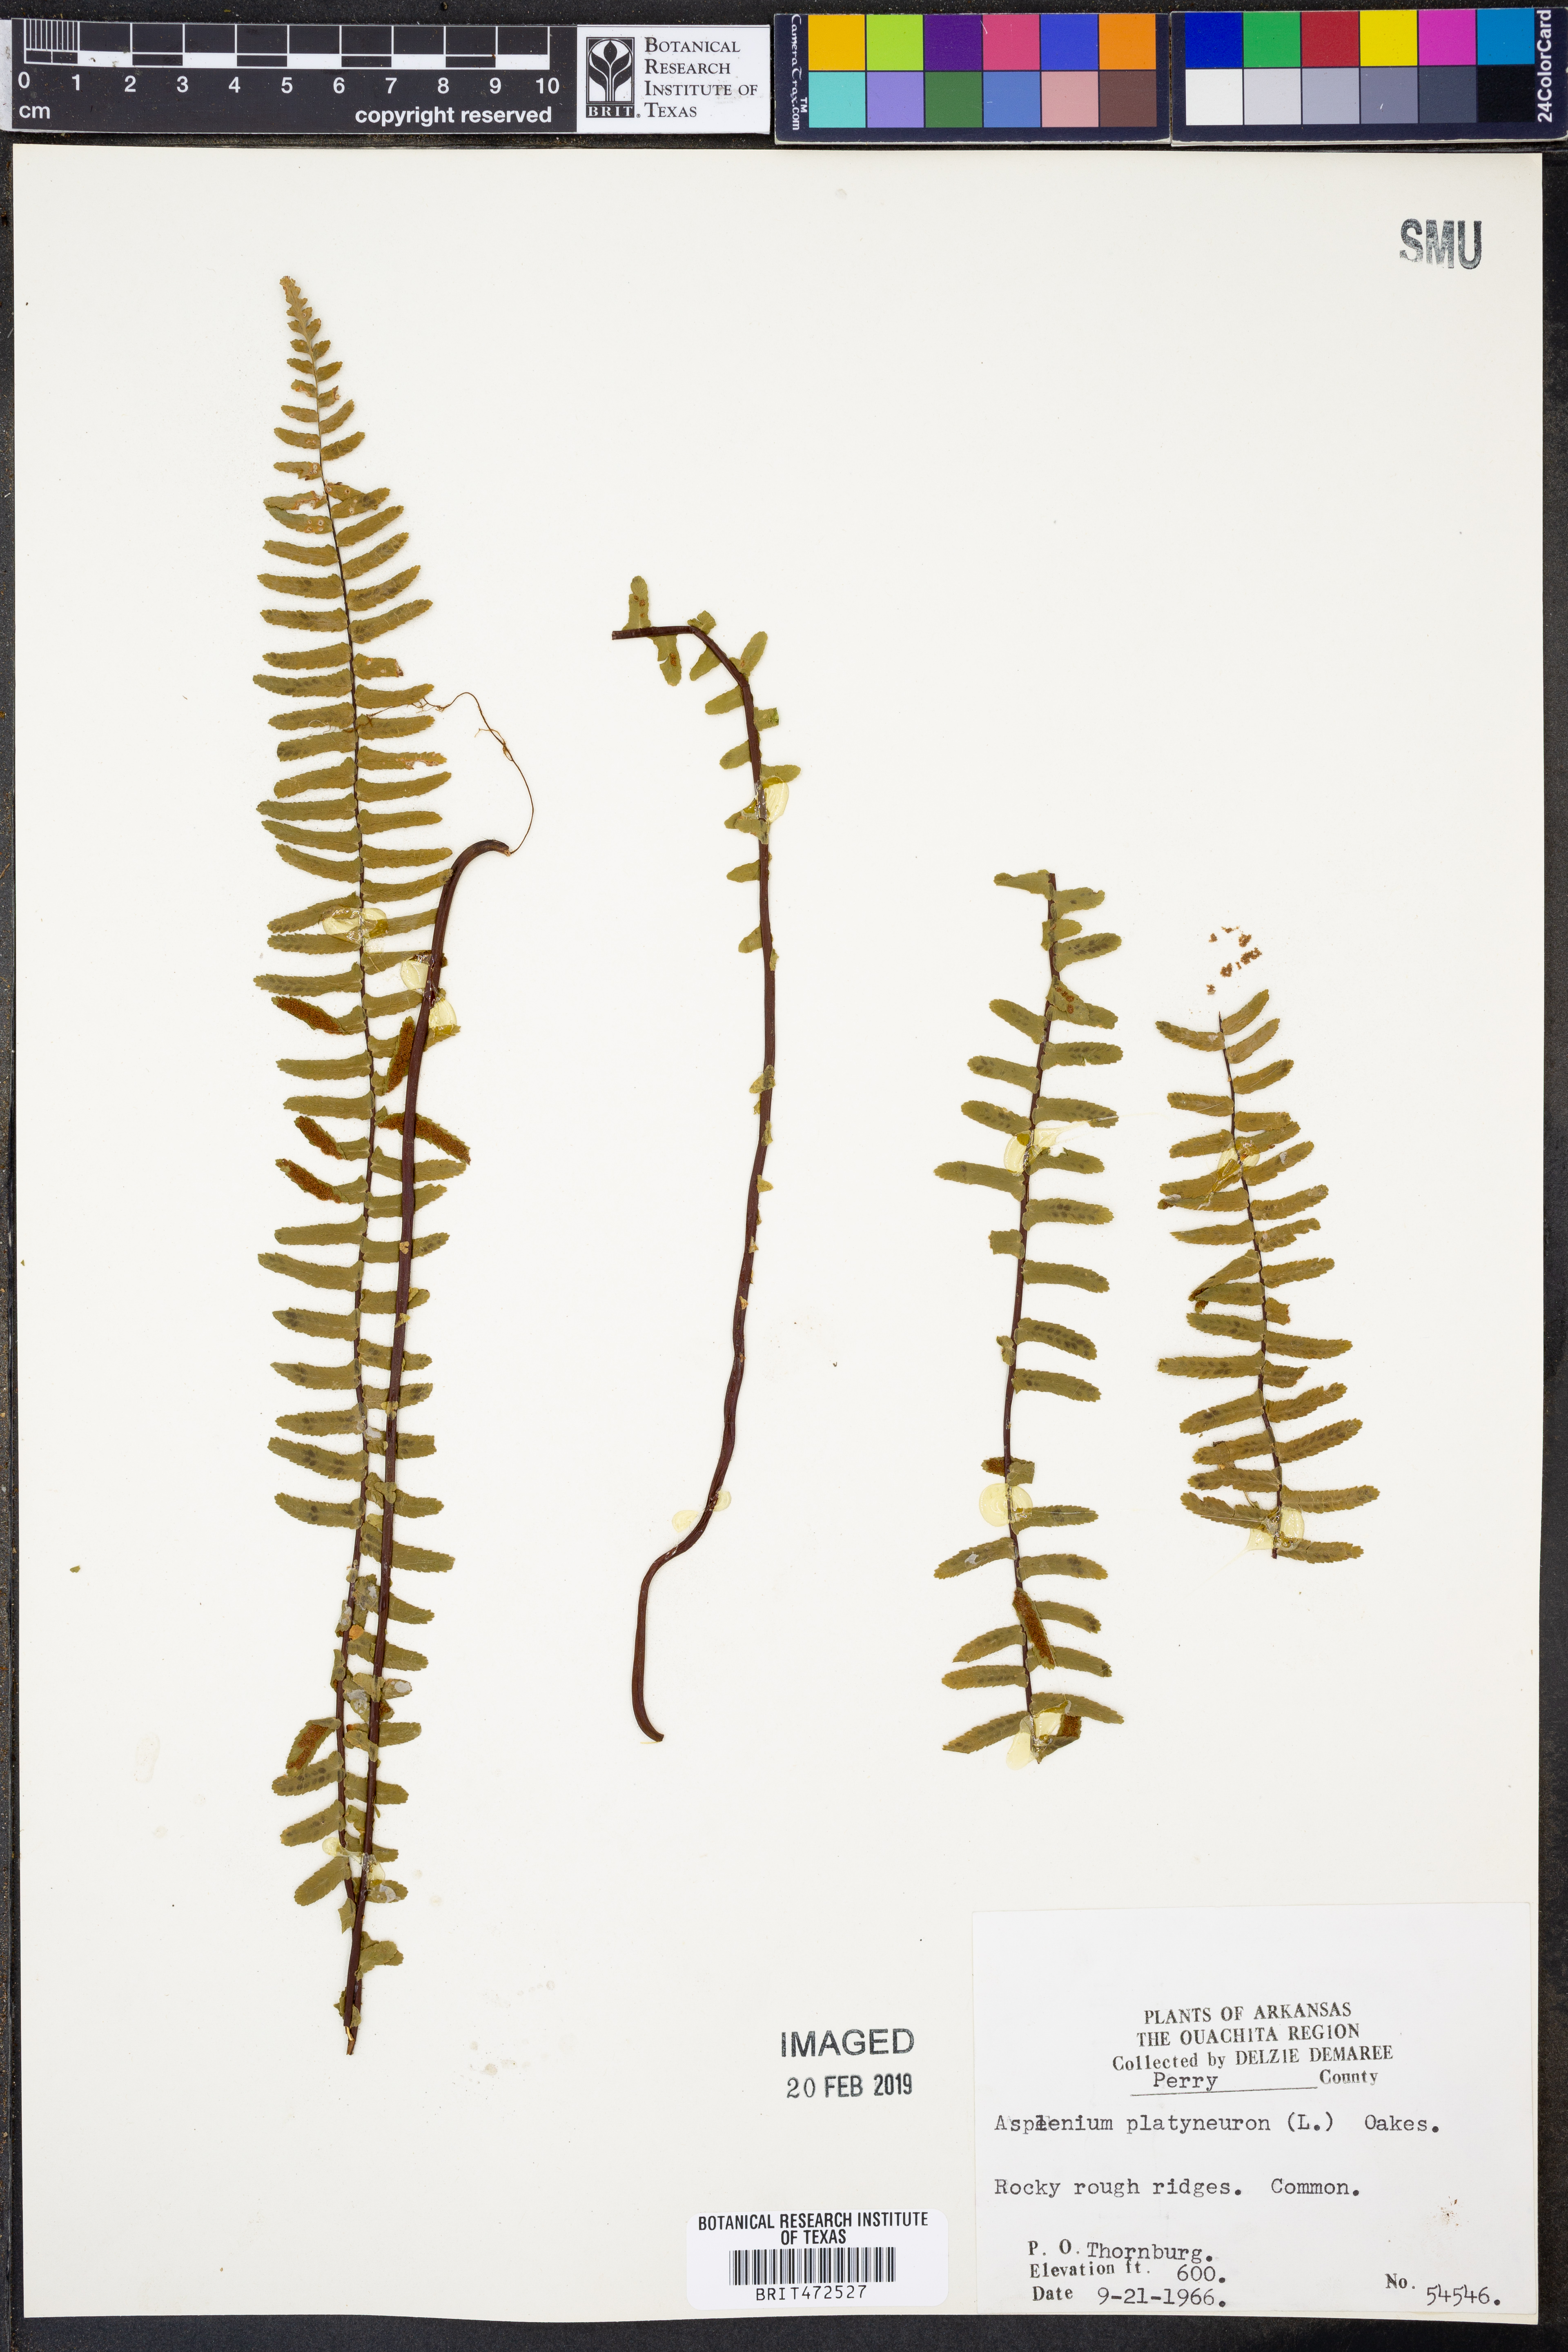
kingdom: Plantae
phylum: Tracheophyta
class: Polypodiopsida
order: Polypodiales
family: Aspleniaceae
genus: Asplenium
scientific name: Asplenium platyneuron
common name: Ebony spleenwort
